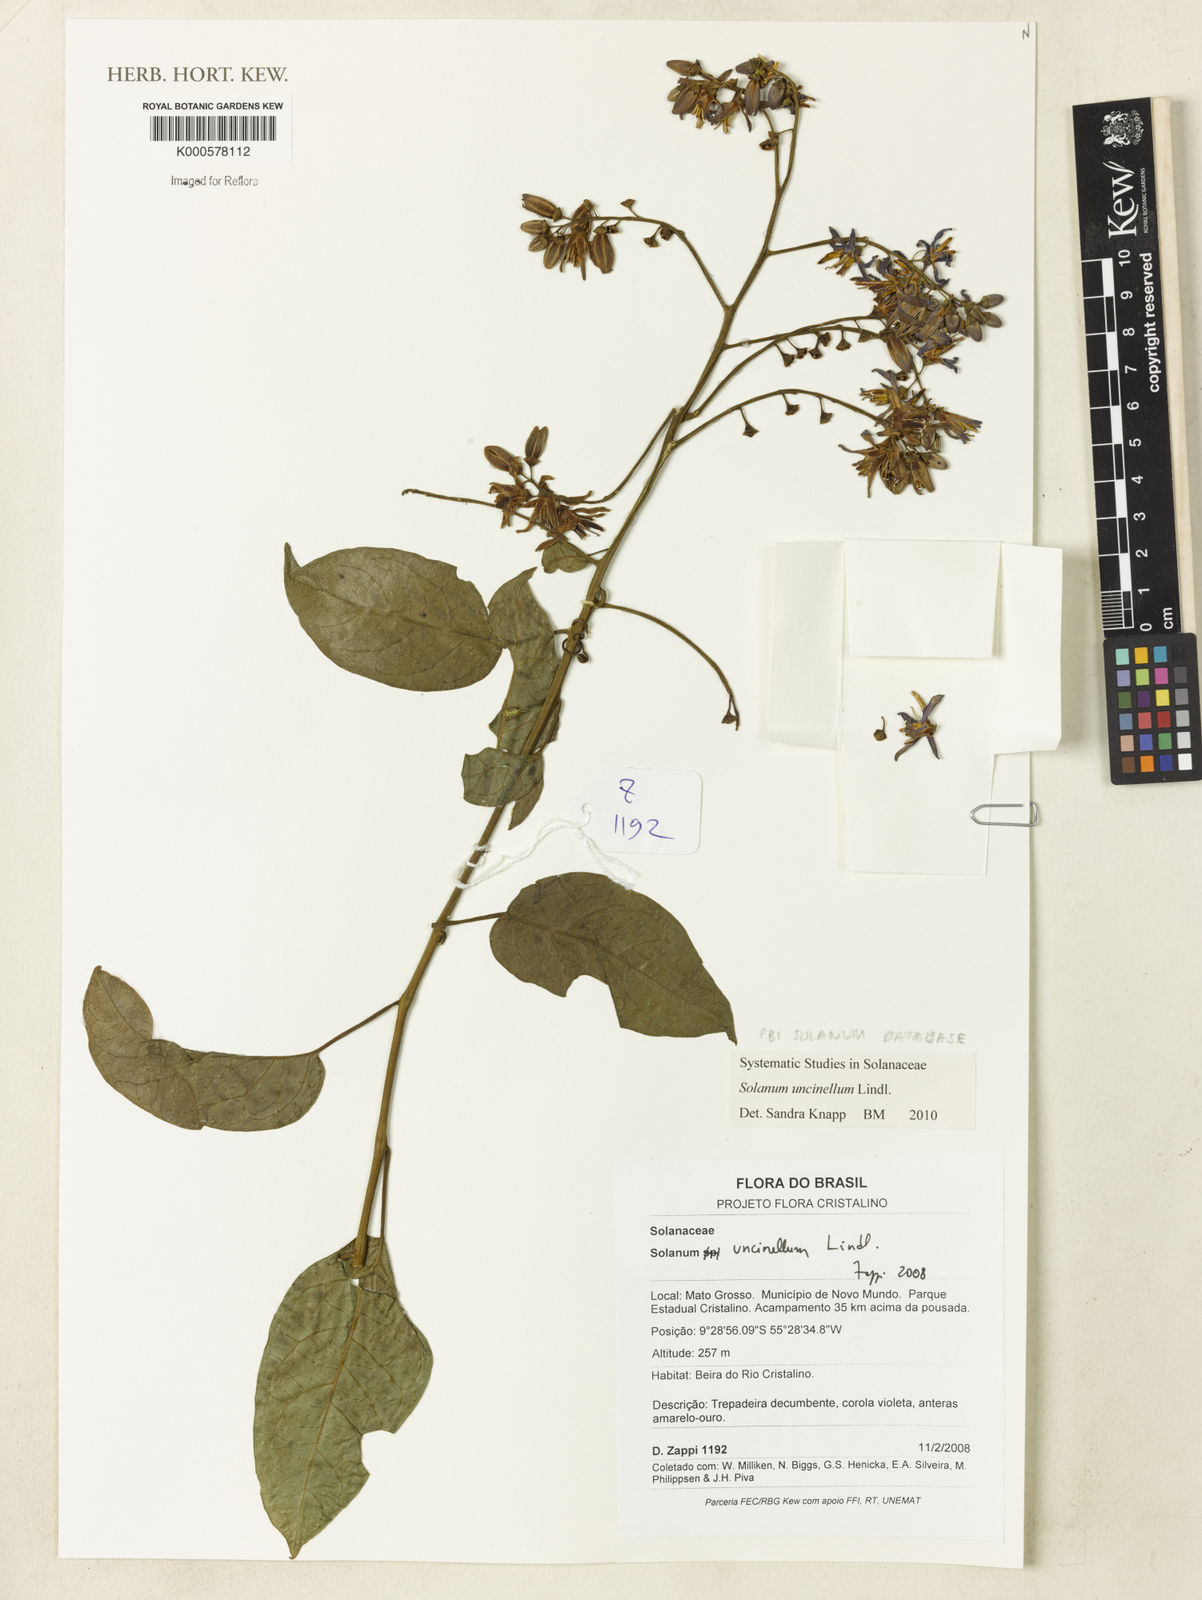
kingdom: Plantae
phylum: Tracheophyta
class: Magnoliopsida
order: Solanales
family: Solanaceae
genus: Solanum
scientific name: Solanum uncinellum
